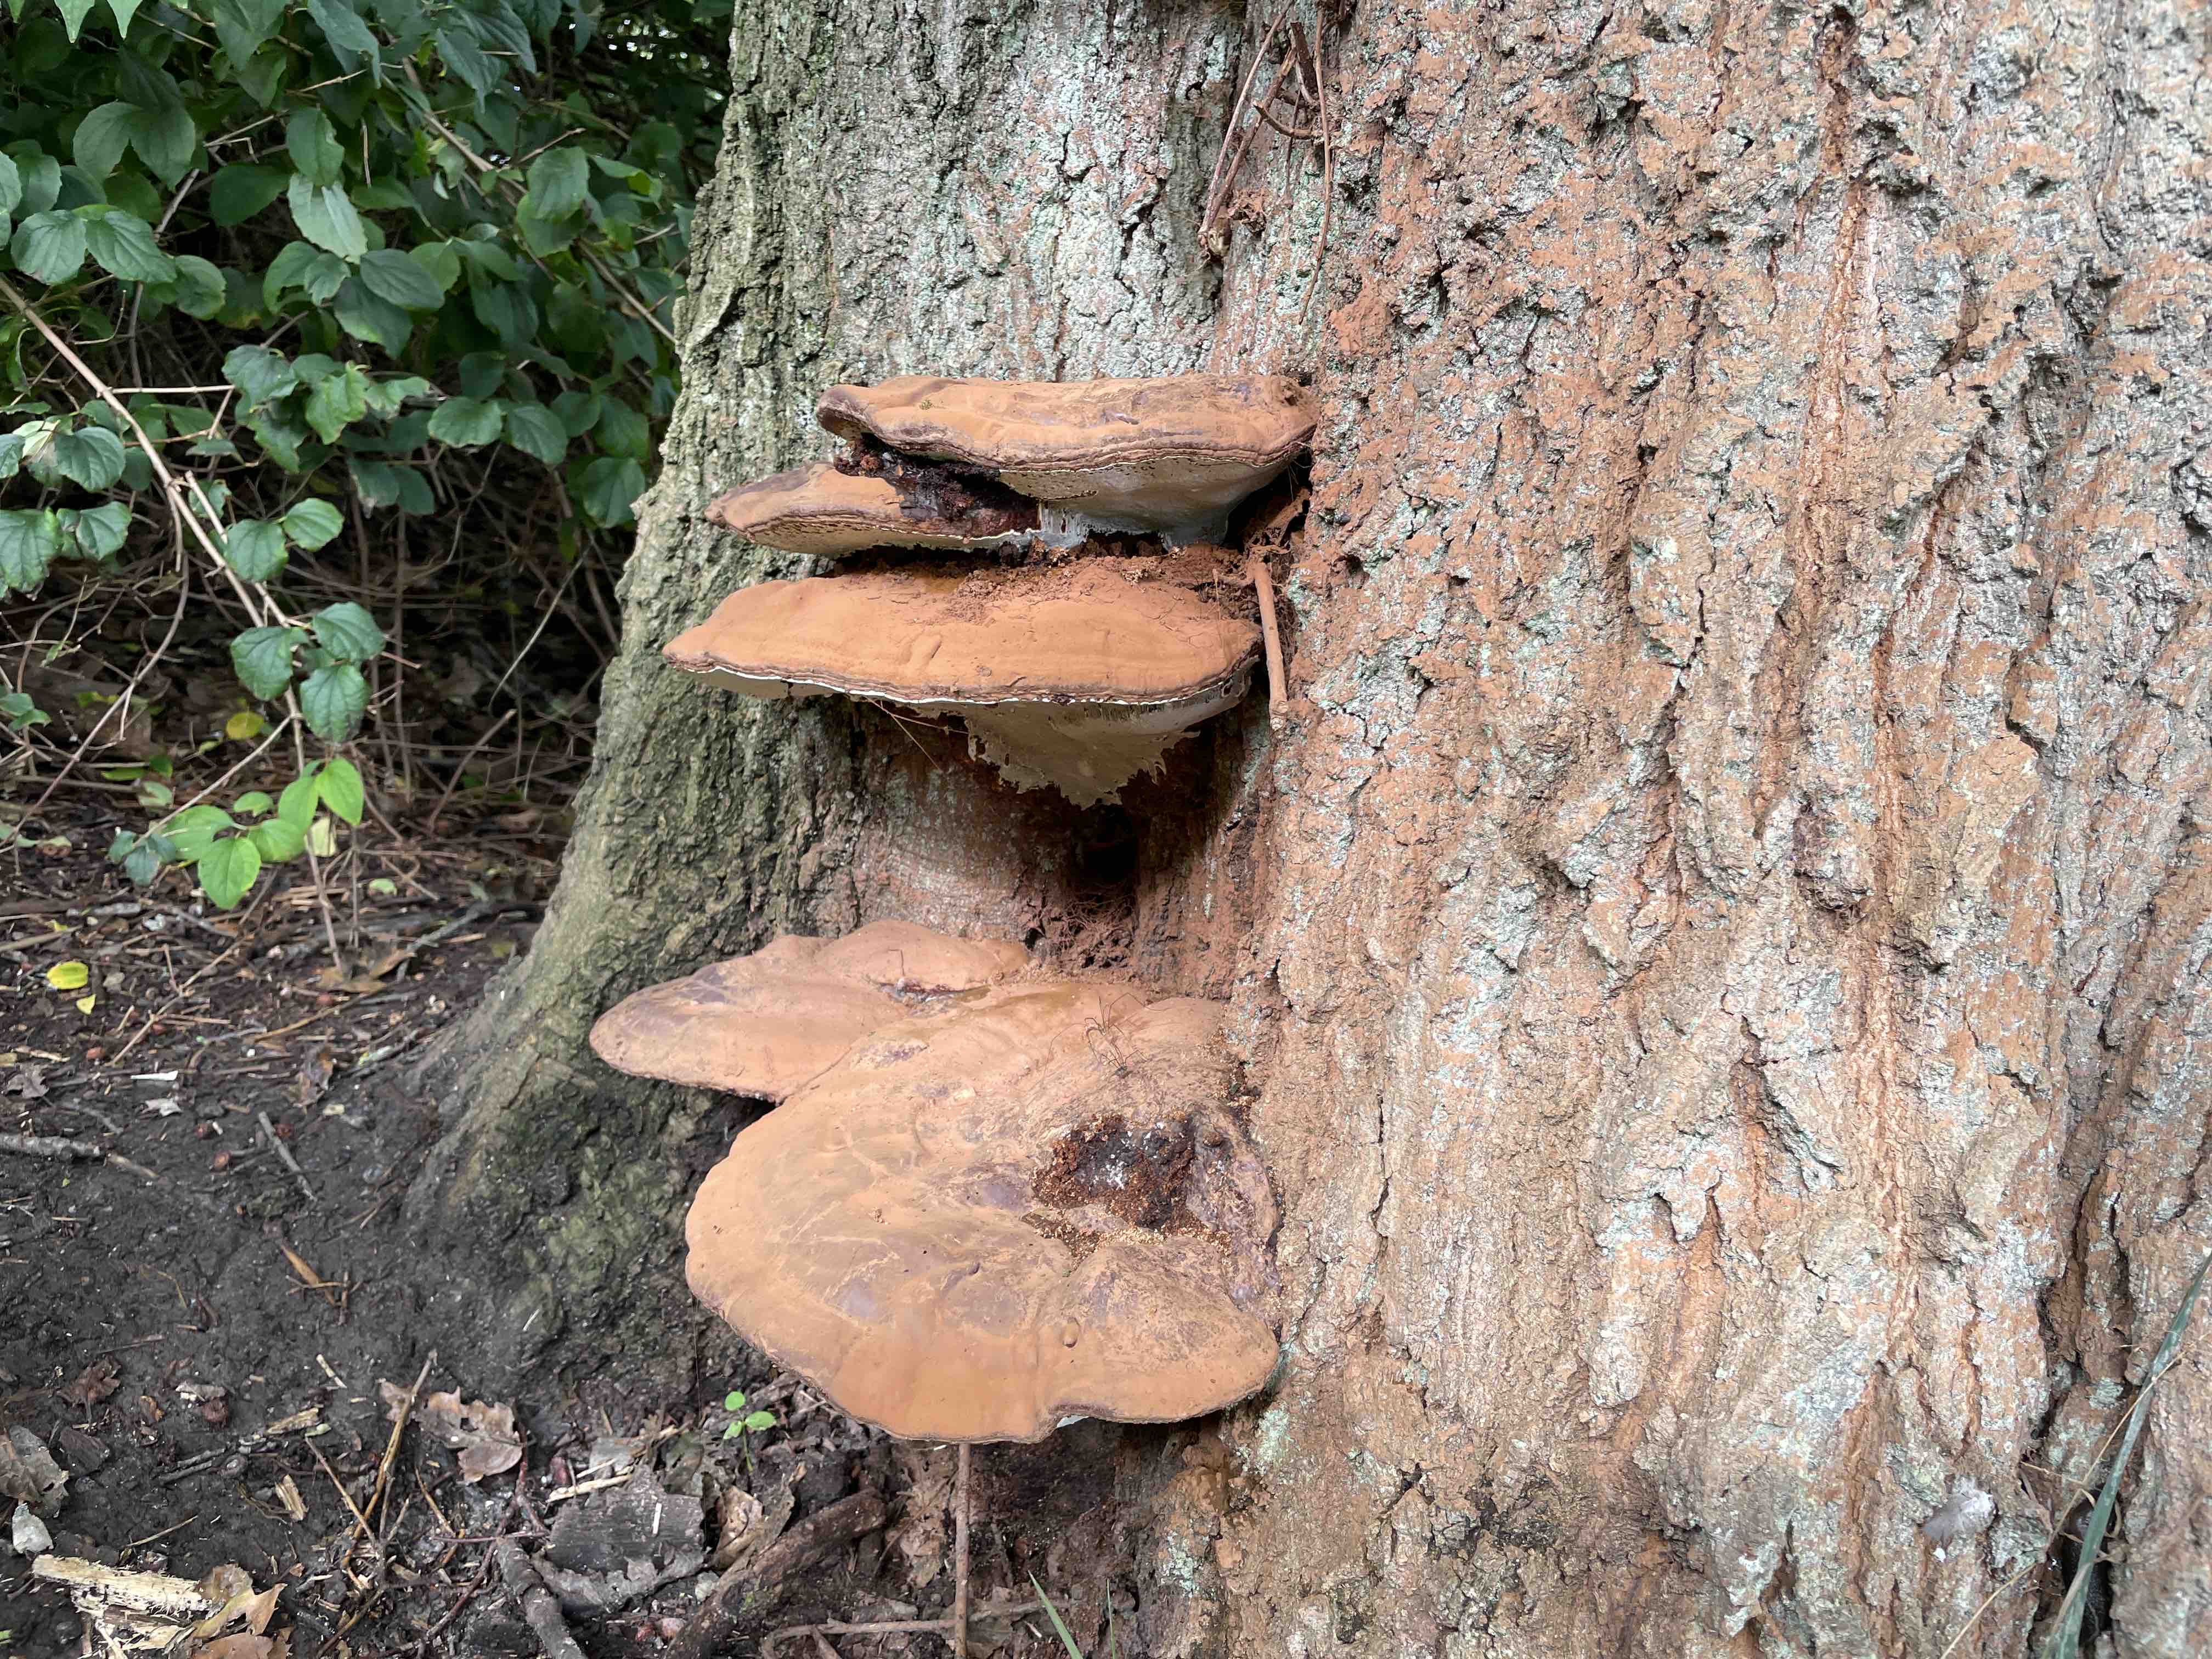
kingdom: Fungi
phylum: Basidiomycota
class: Agaricomycetes
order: Polyporales
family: Polyporaceae
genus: Ganoderma
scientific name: Ganoderma resinaceum
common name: gyldenbrun lakporesvamp
